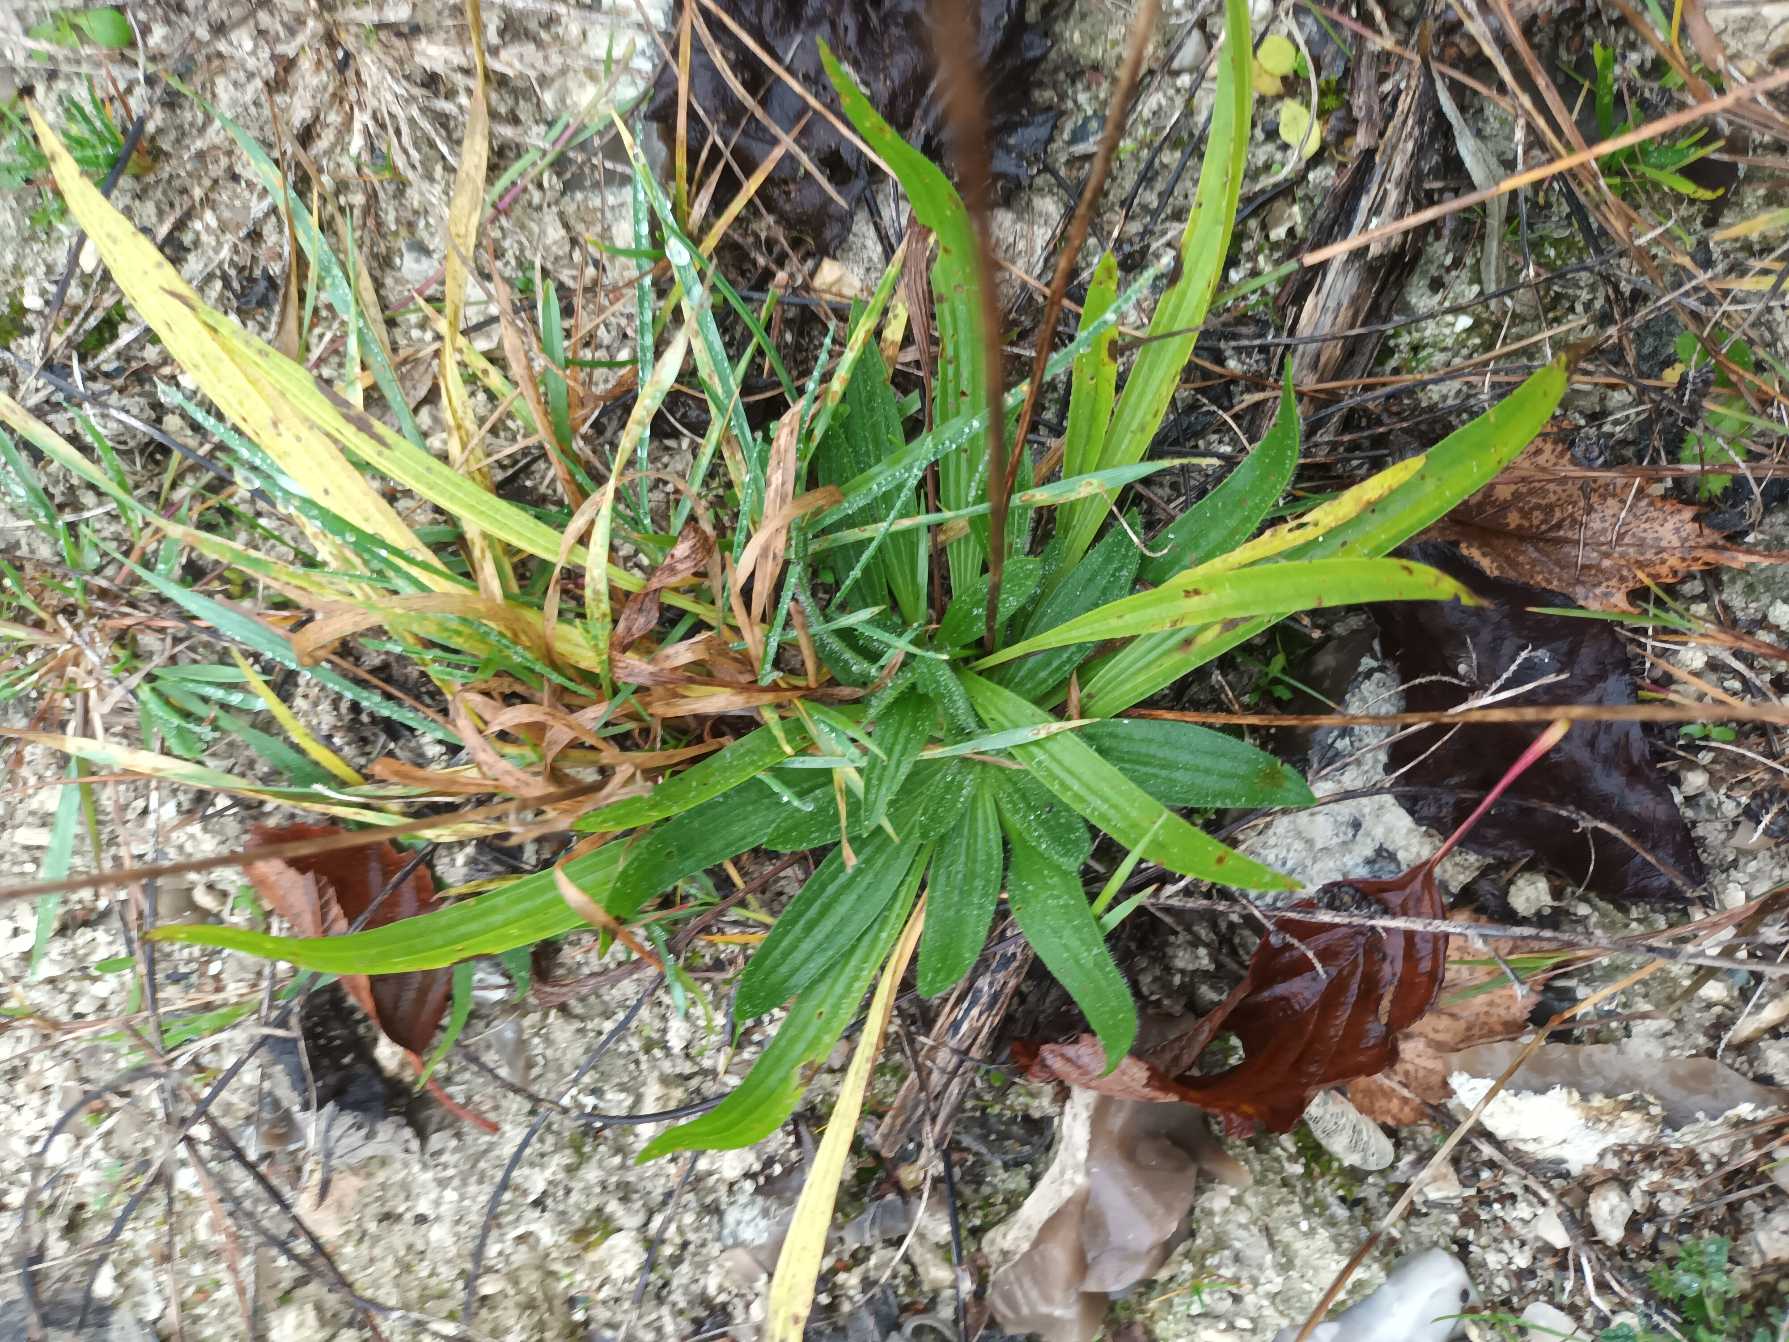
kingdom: Plantae
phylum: Tracheophyta
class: Magnoliopsida
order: Lamiales
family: Plantaginaceae
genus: Plantago
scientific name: Plantago lanceolata
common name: Lancet-vejbred
